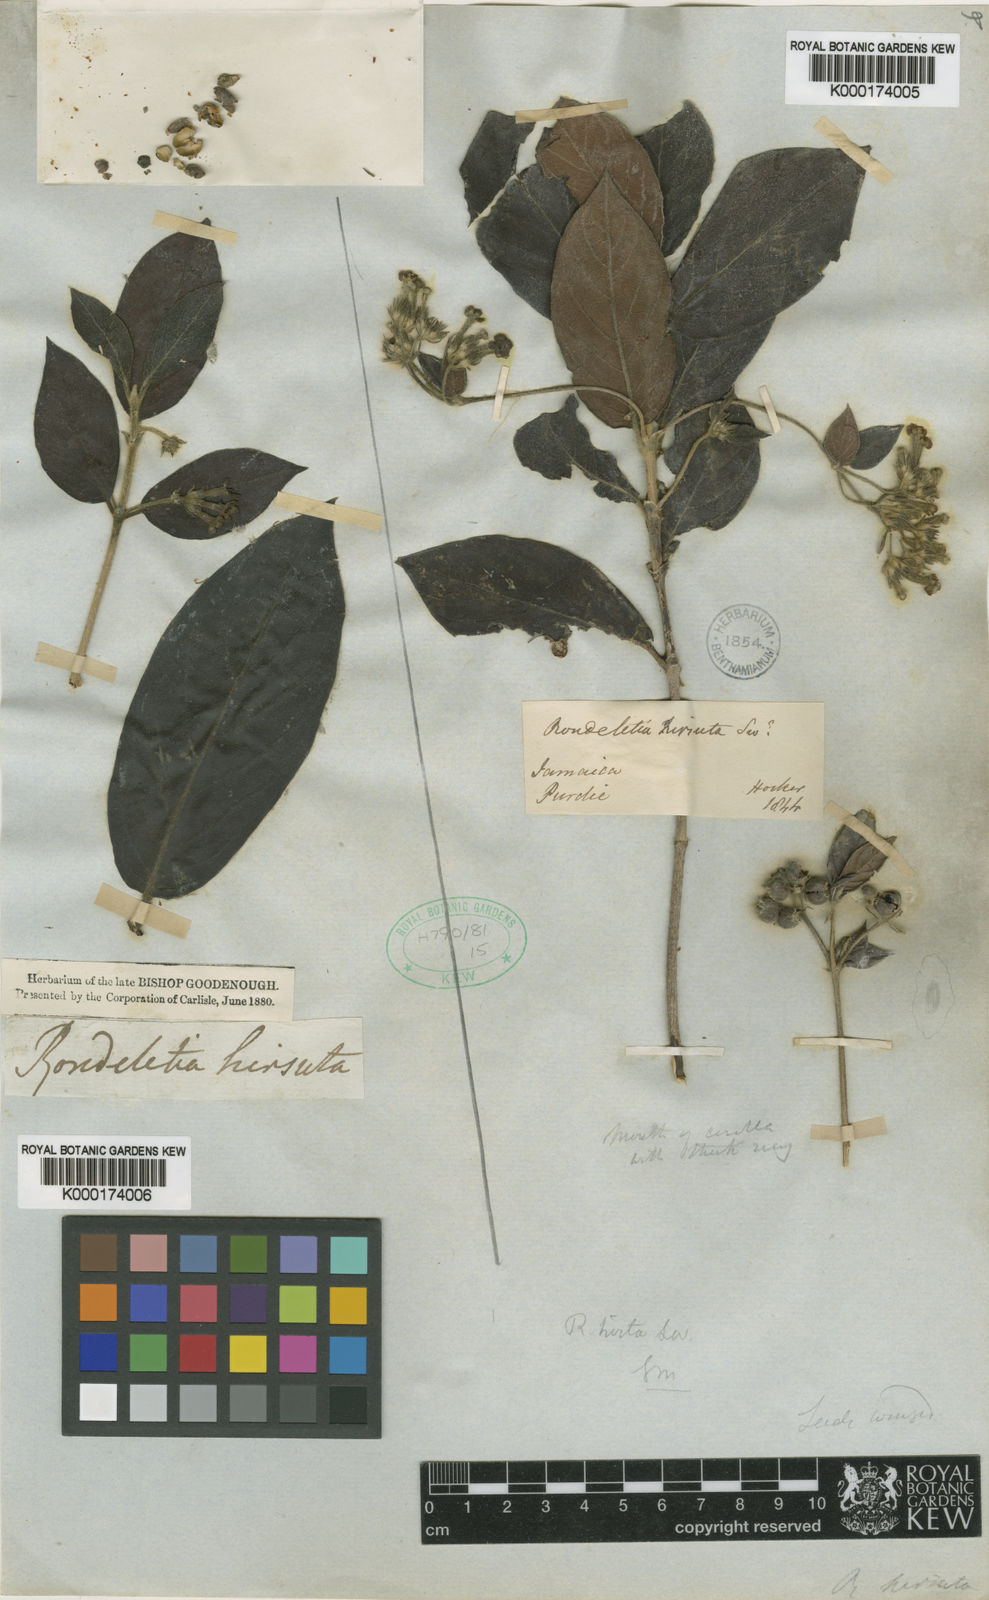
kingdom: Plantae
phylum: Tracheophyta
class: Magnoliopsida
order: Gentianales
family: Rubiaceae
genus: Rondeletia
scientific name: Rondeletia hirta
